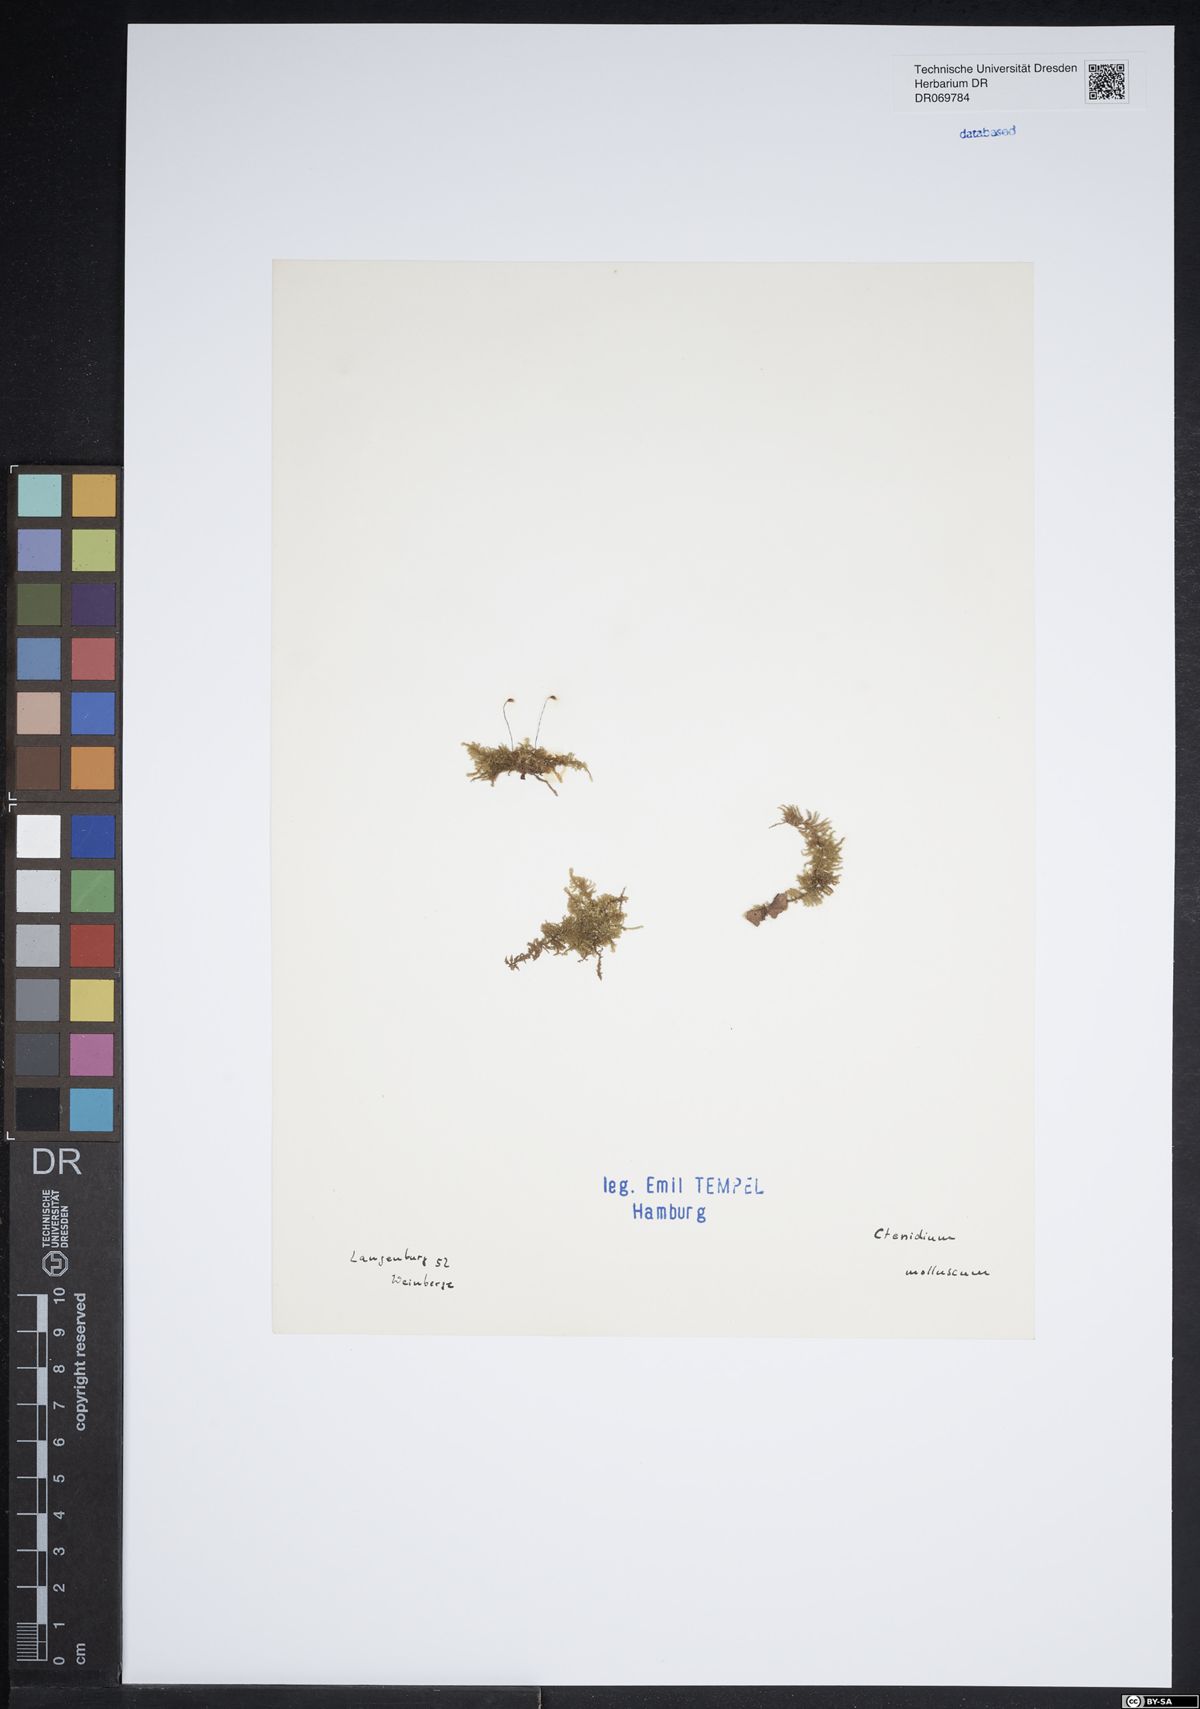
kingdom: Plantae
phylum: Bryophyta
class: Bryopsida
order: Hypnales
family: Myuriaceae
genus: Ctenidium
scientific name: Ctenidium molluscum
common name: Chalk comb-moss
